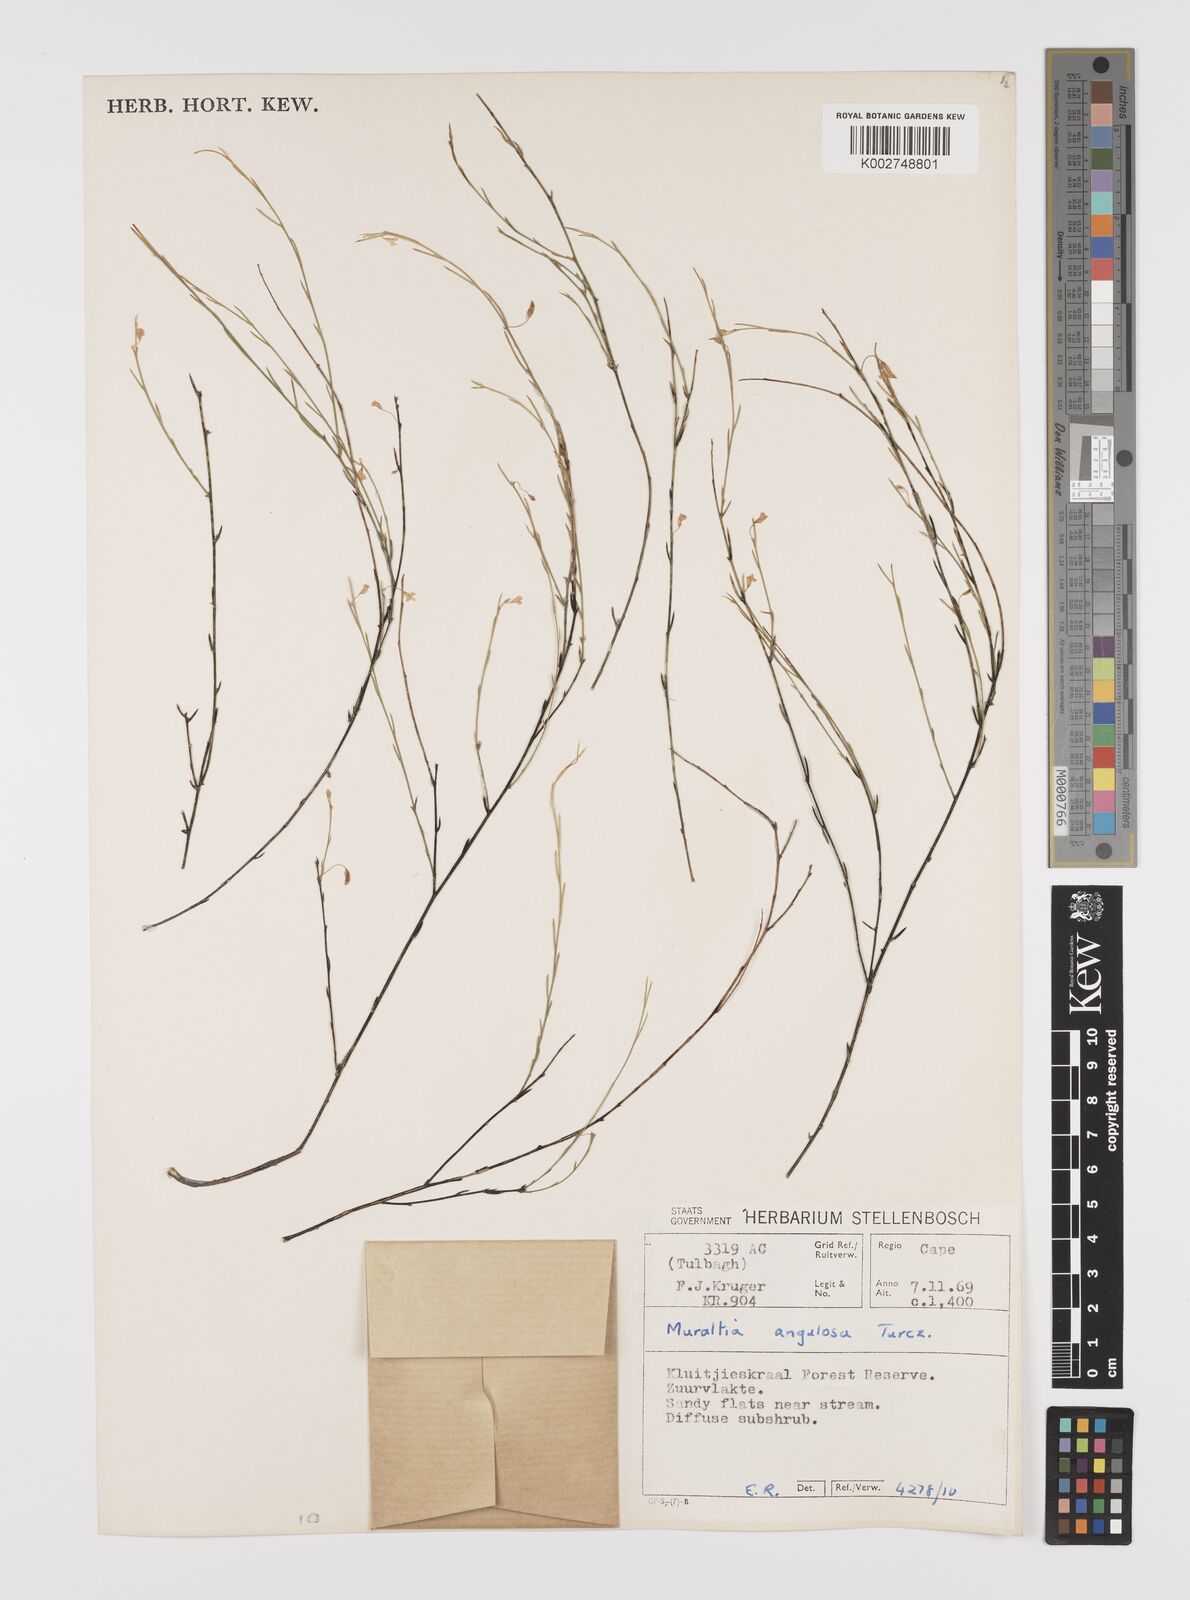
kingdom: Plantae
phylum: Tracheophyta
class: Magnoliopsida
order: Fabales
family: Polygalaceae
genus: Muraltia
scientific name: Muraltia angulosa
